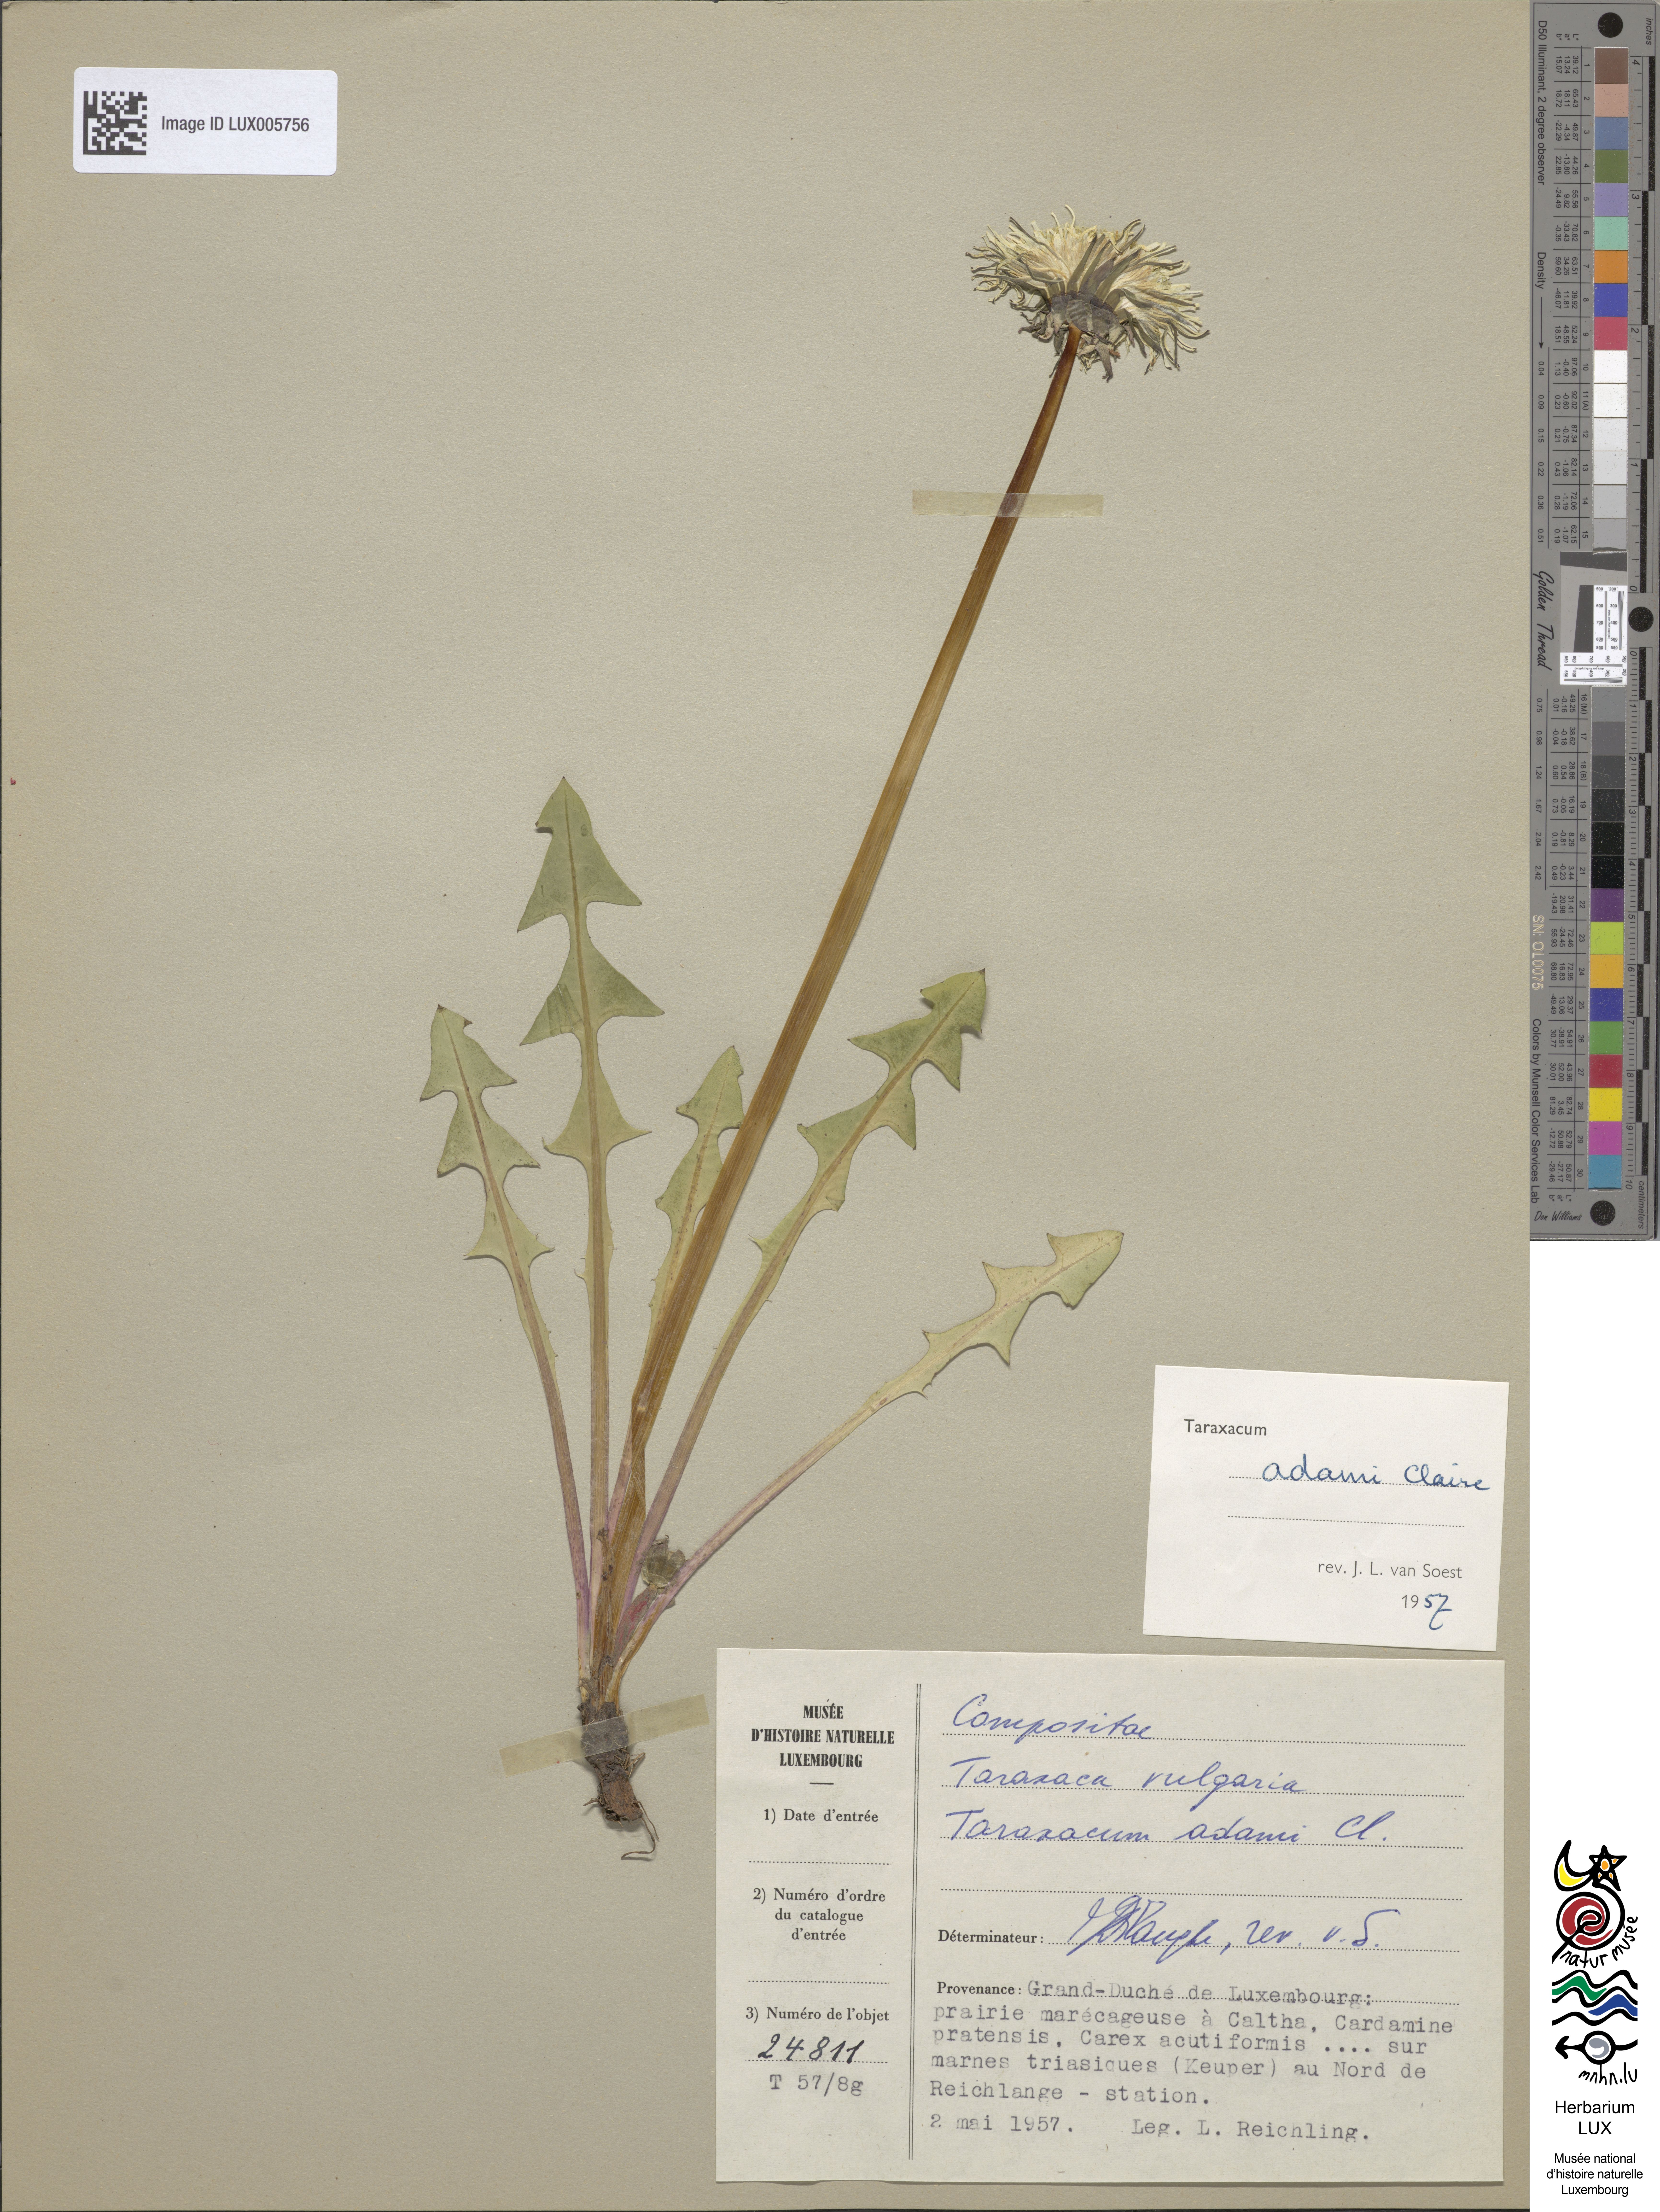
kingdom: Plantae
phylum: Tracheophyta
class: Magnoliopsida
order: Asterales
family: Asteraceae
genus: Taraxacum
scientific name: Taraxacum adamii
